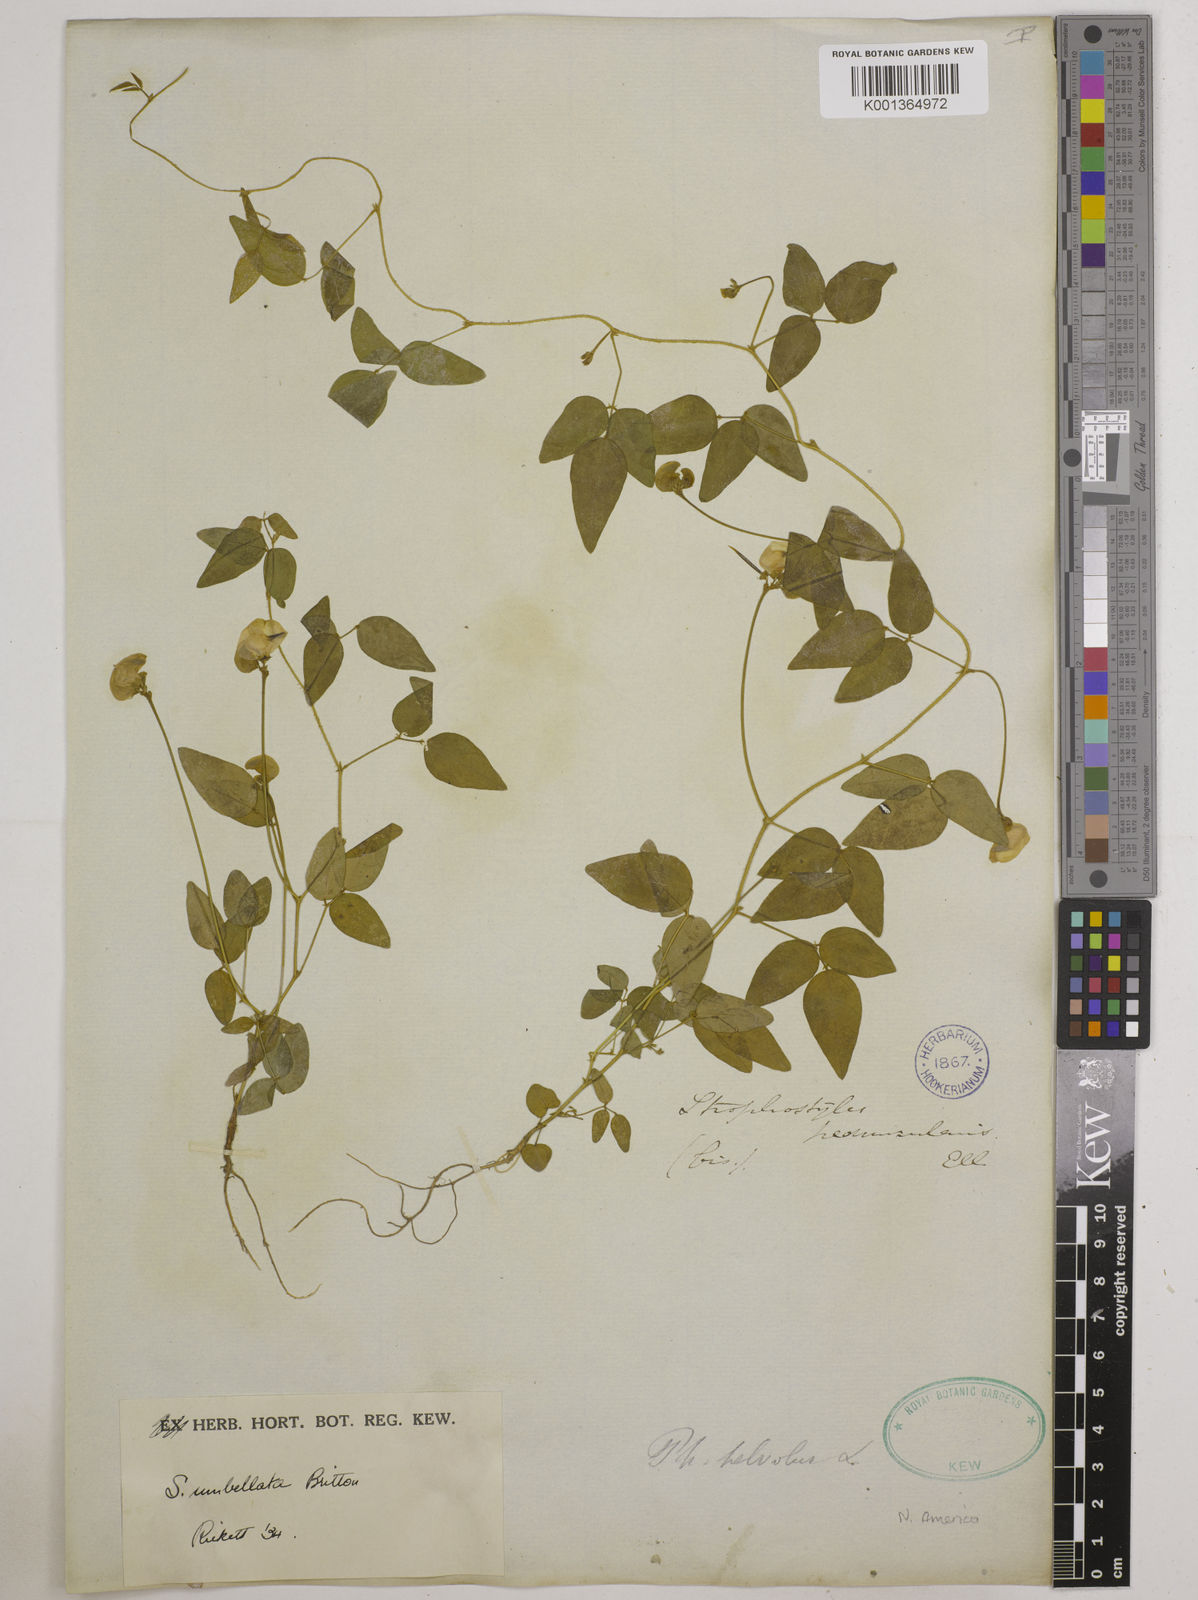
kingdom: Plantae
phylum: Tracheophyta
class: Magnoliopsida
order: Fabales
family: Fabaceae
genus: Strophostyles
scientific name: Strophostyles umbellata
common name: Perennial wild bean
